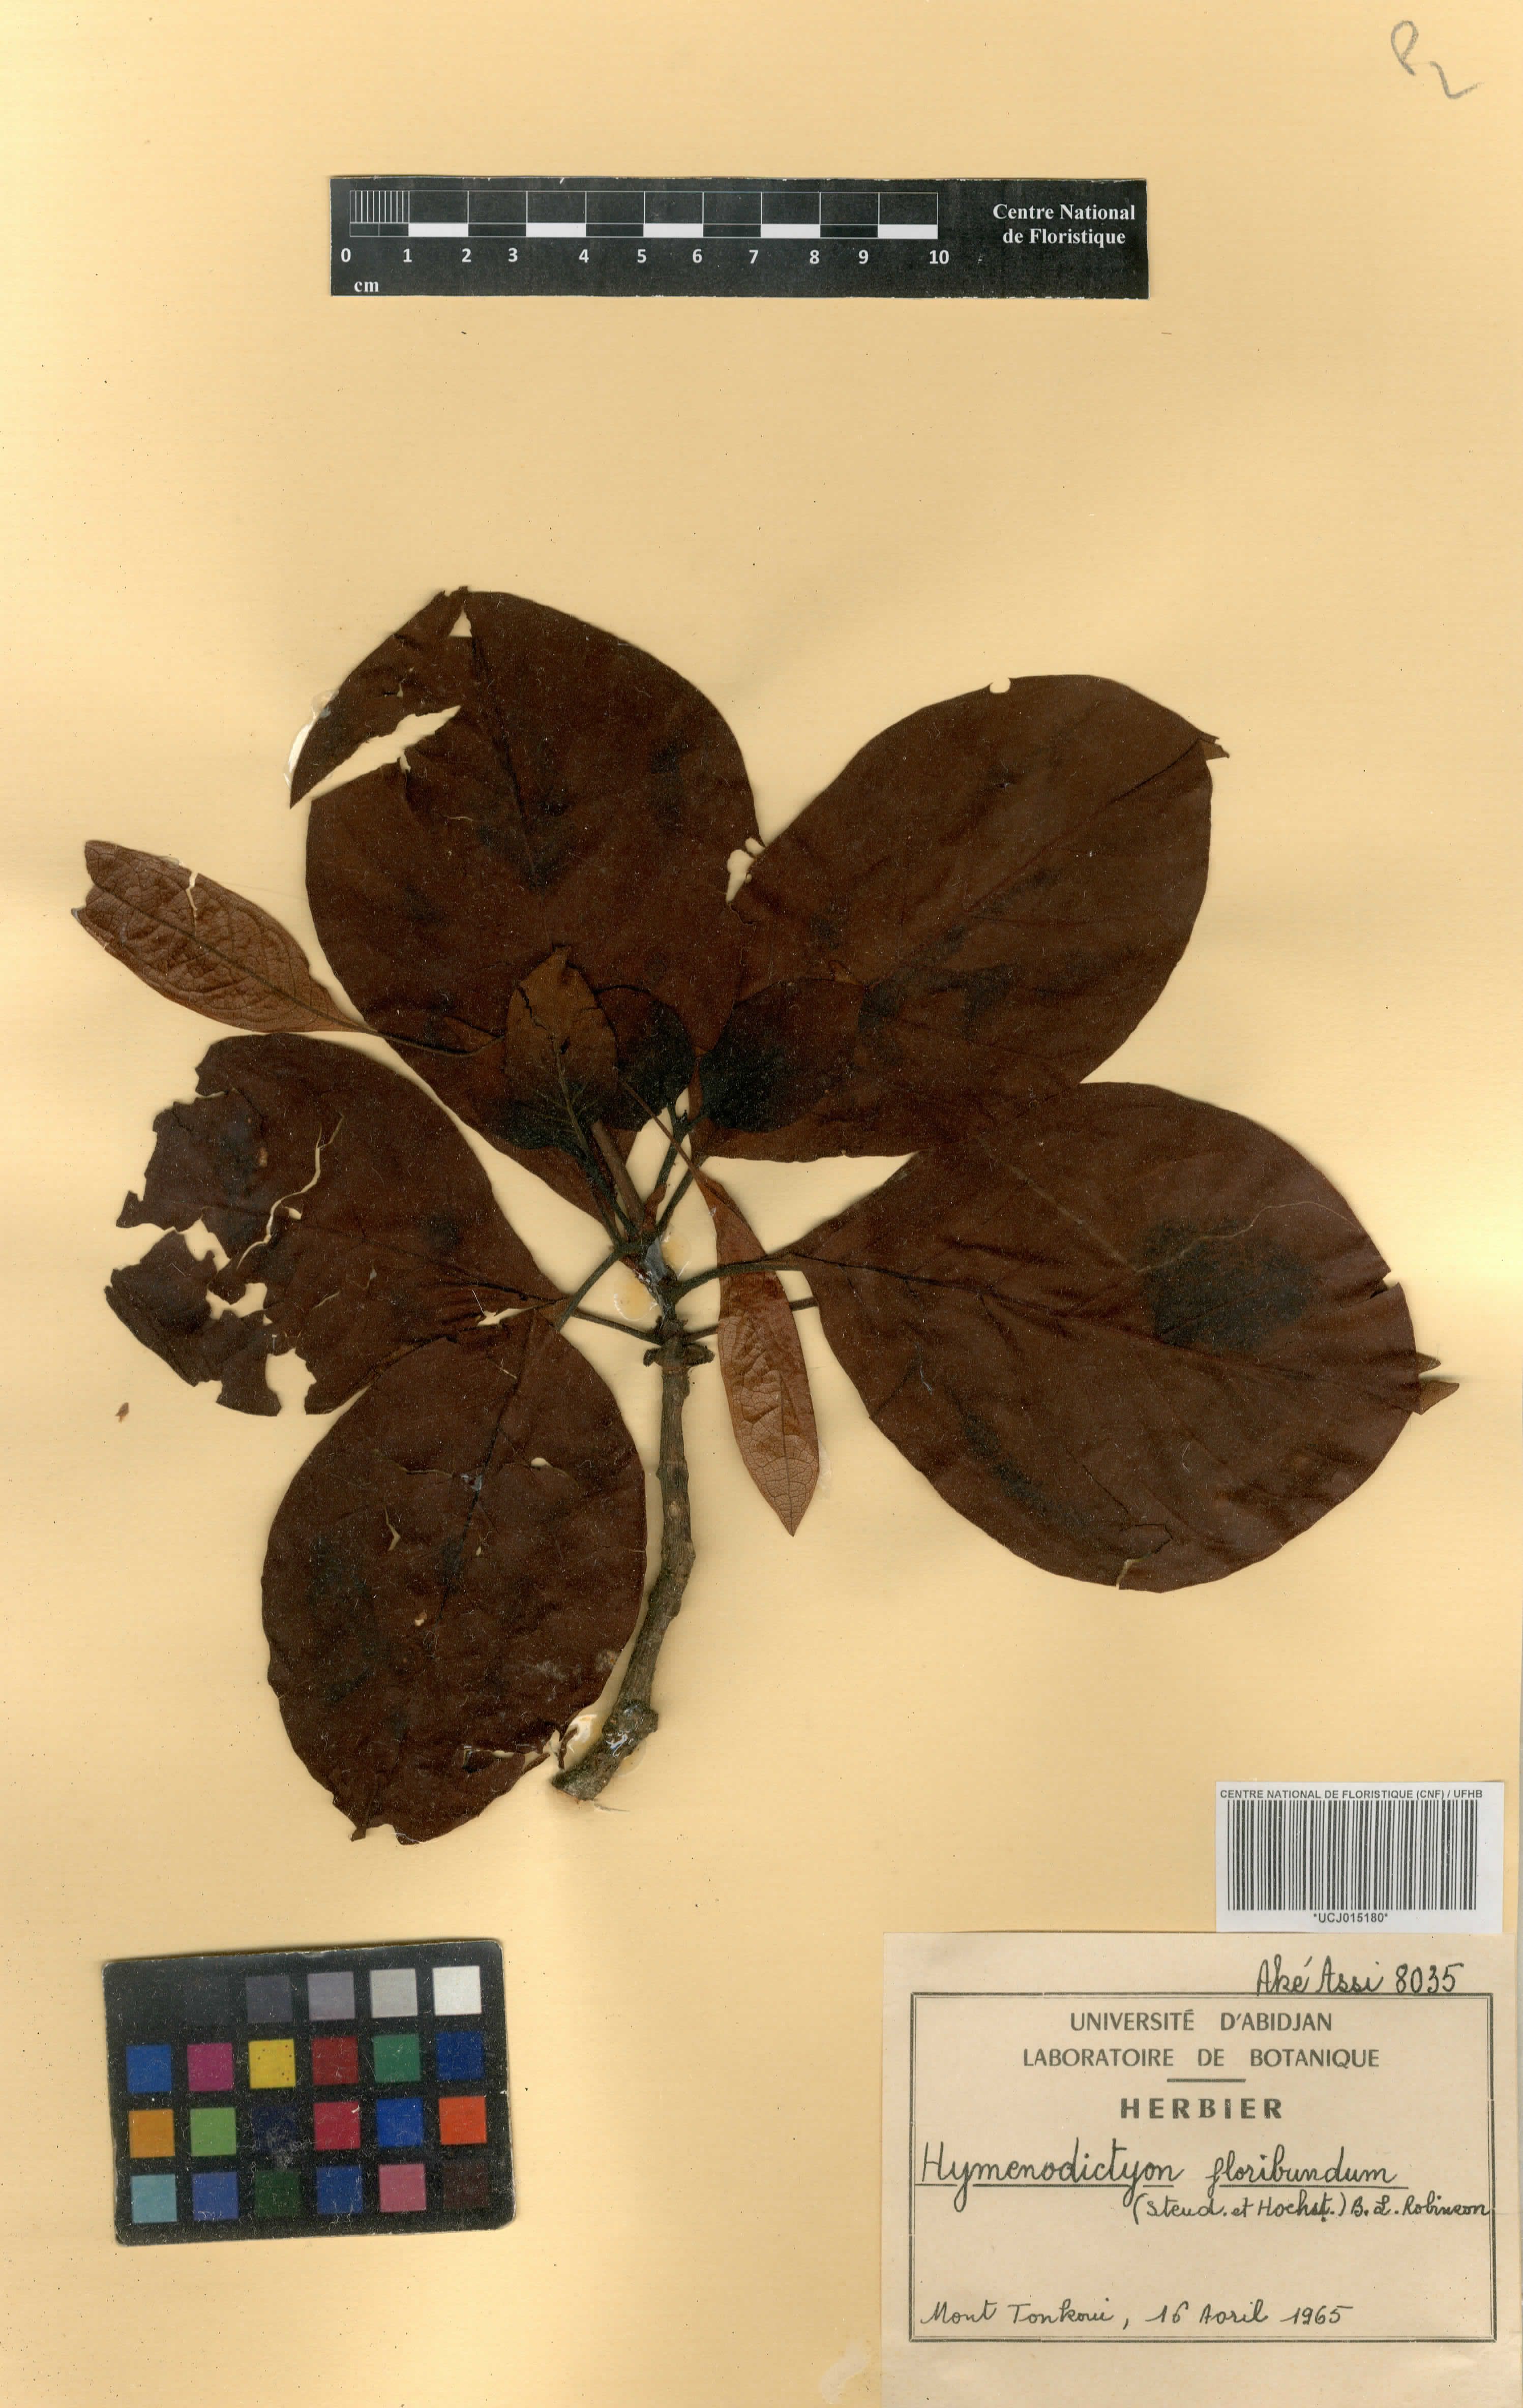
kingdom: Plantae
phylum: Tracheophyta
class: Magnoliopsida
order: Gentianales
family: Rubiaceae
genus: Hymenodictyon
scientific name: Hymenodictyon floribundum
